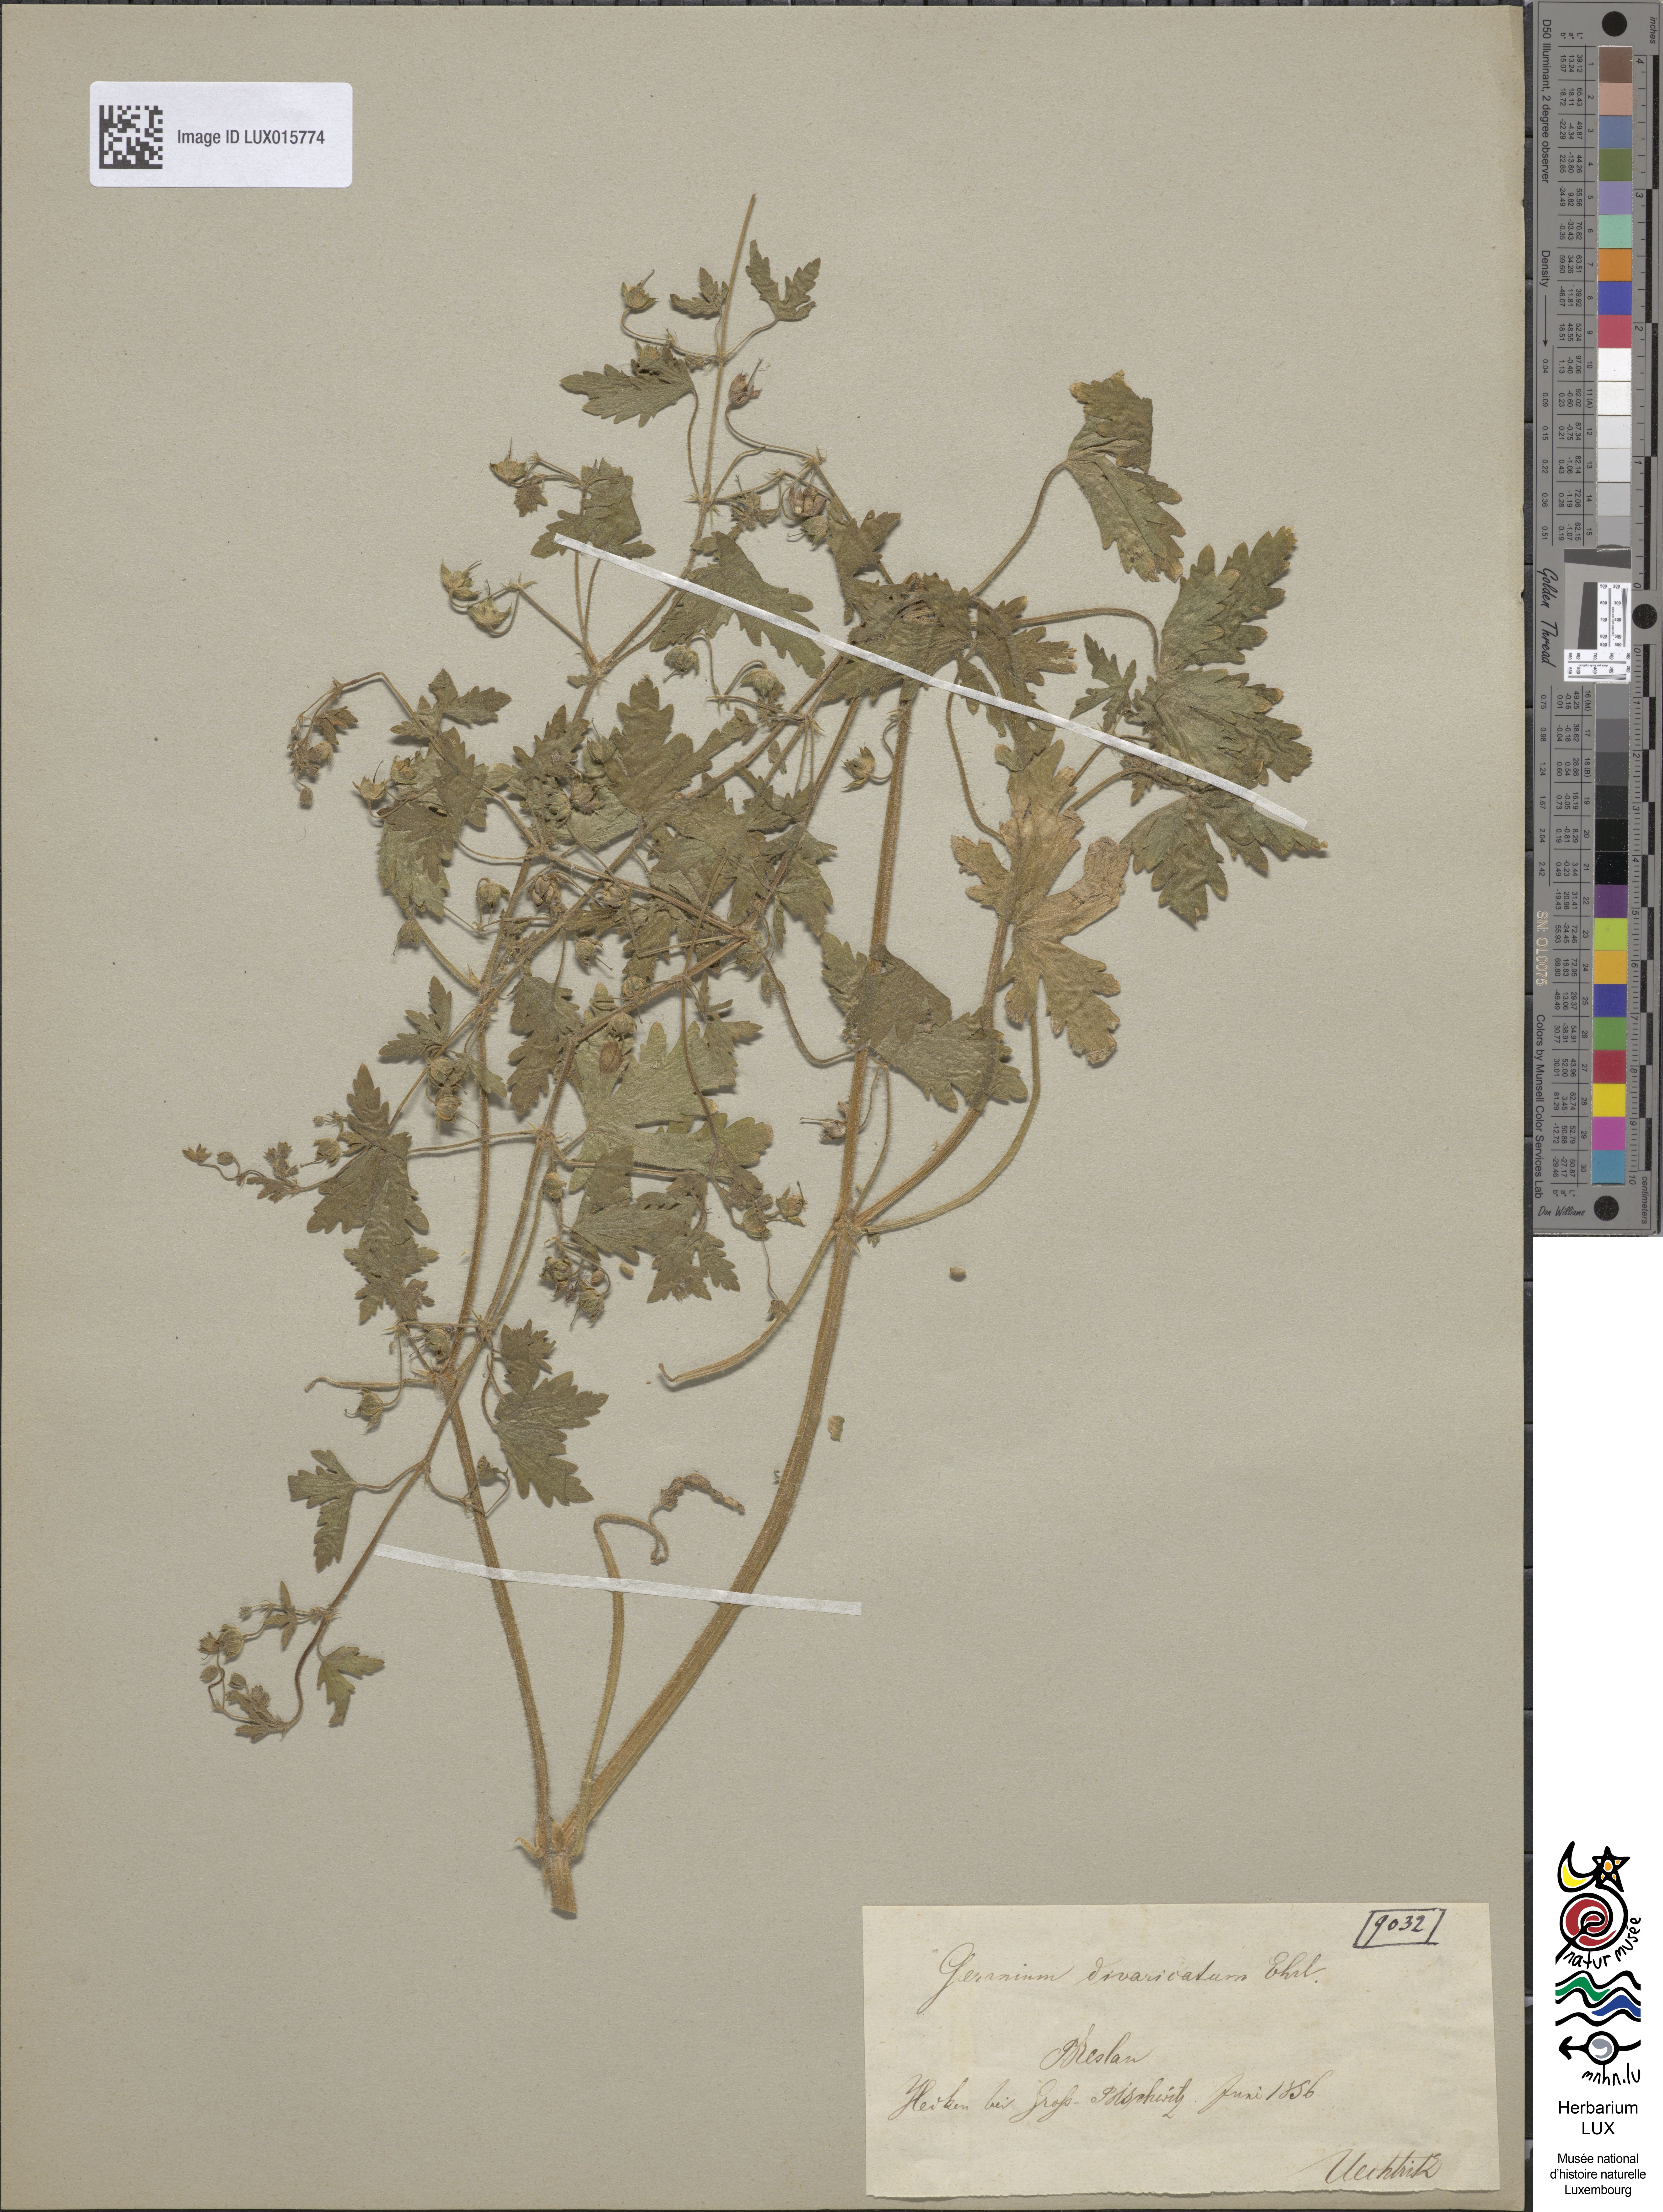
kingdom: Plantae
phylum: Tracheophyta
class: Magnoliopsida
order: Geraniales
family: Geraniaceae
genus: Geranium
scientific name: Geranium divaricatum
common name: Spreading crane's-bill
